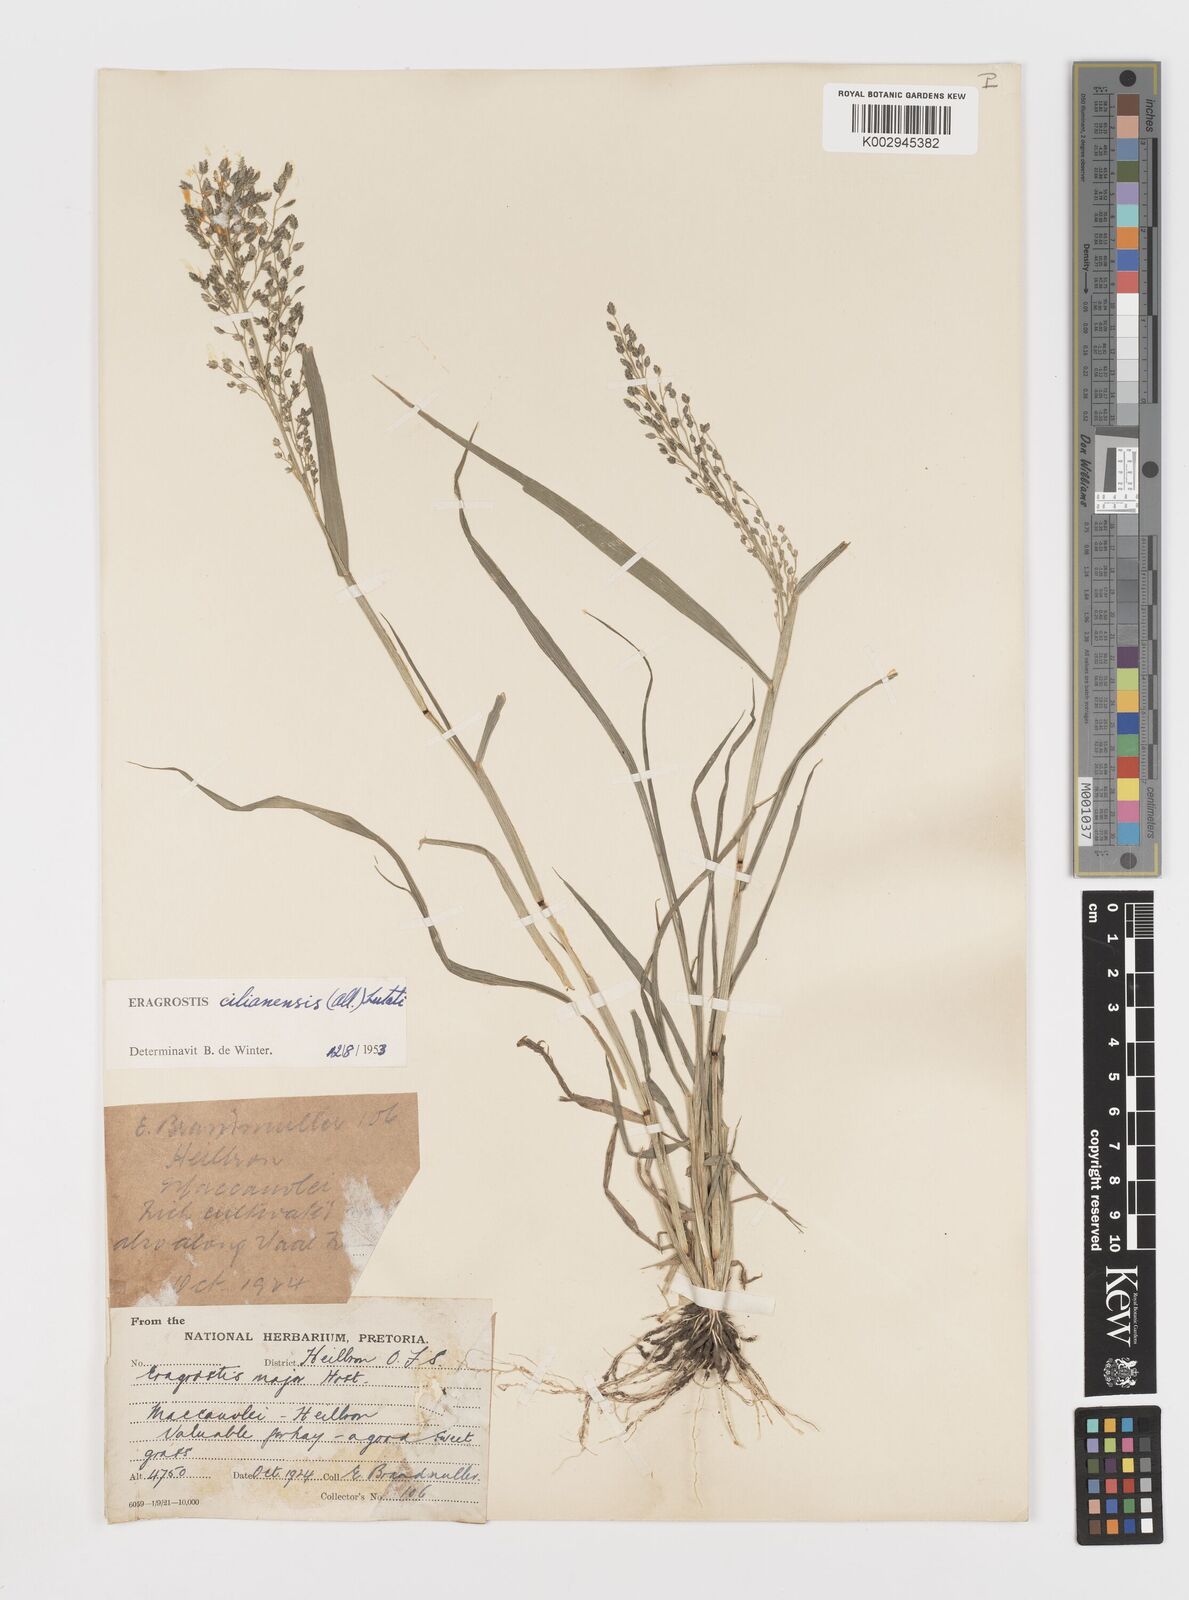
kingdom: Plantae
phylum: Tracheophyta
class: Liliopsida
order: Poales
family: Poaceae
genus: Eragrostis
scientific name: Eragrostis cilianensis
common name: Stinkgrass
